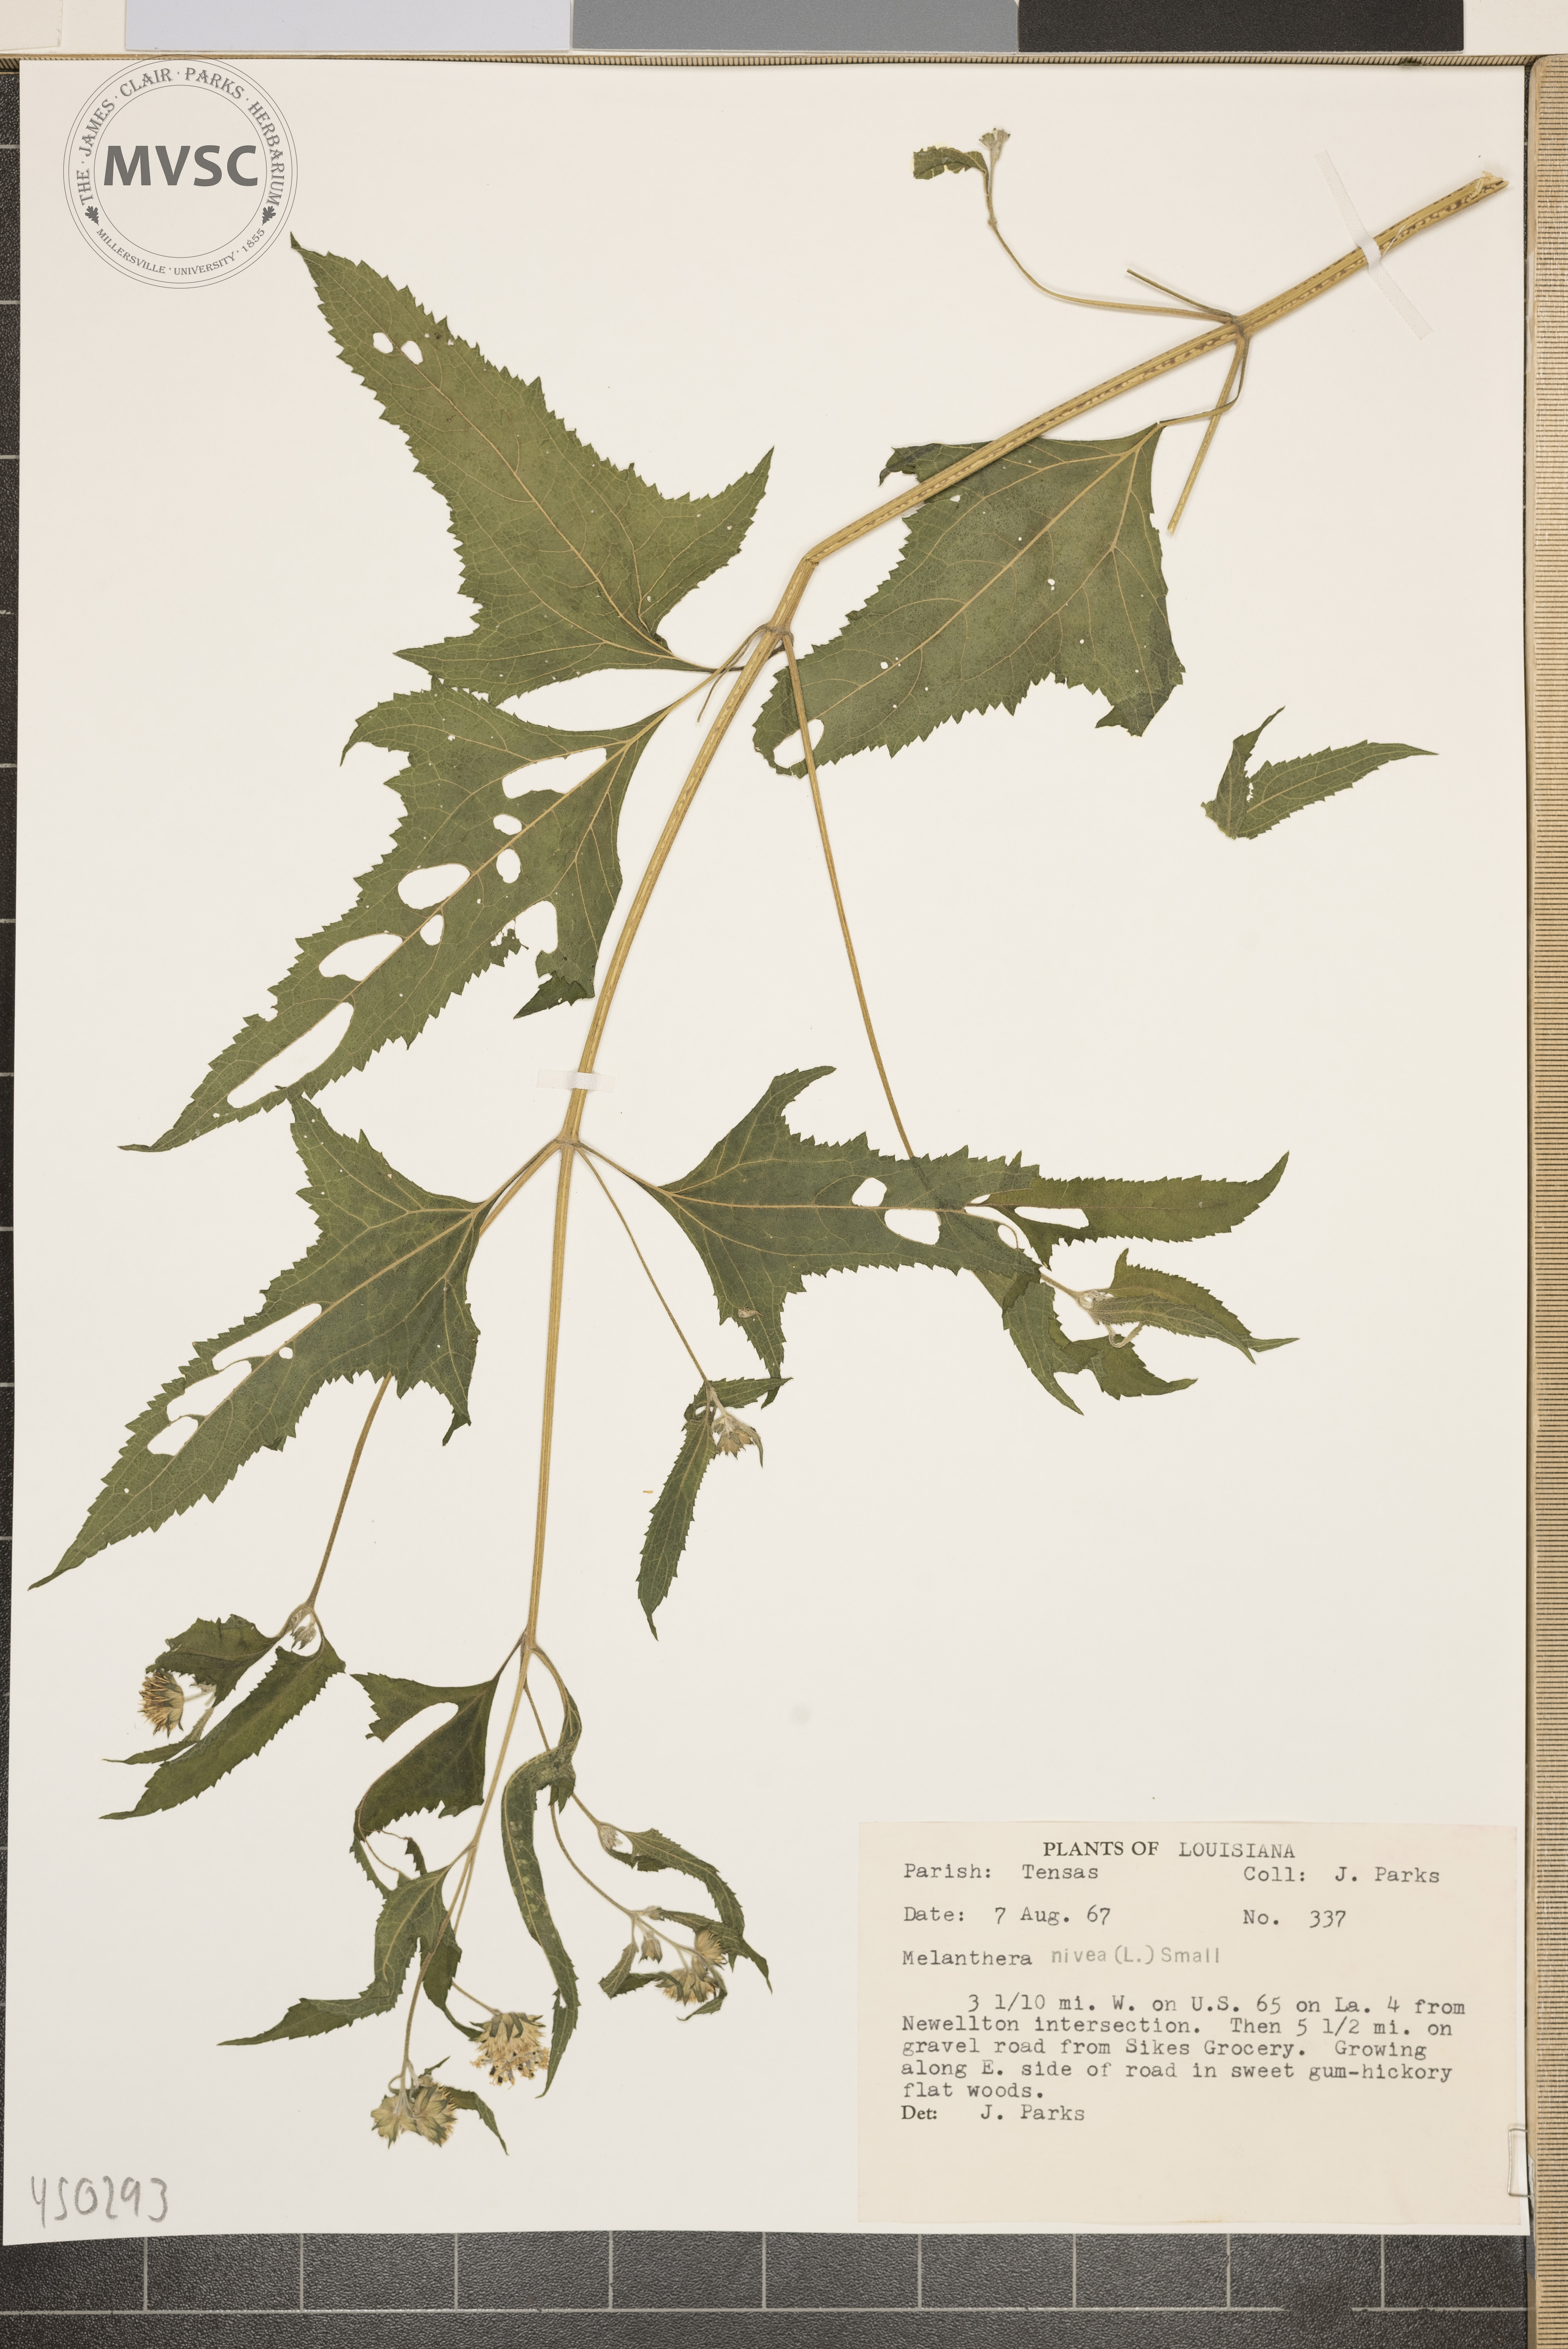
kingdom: Plantae
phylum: Tracheophyta
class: Magnoliopsida
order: Asterales
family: Asteraceae
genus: Melanthera
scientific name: Melanthera nivea
